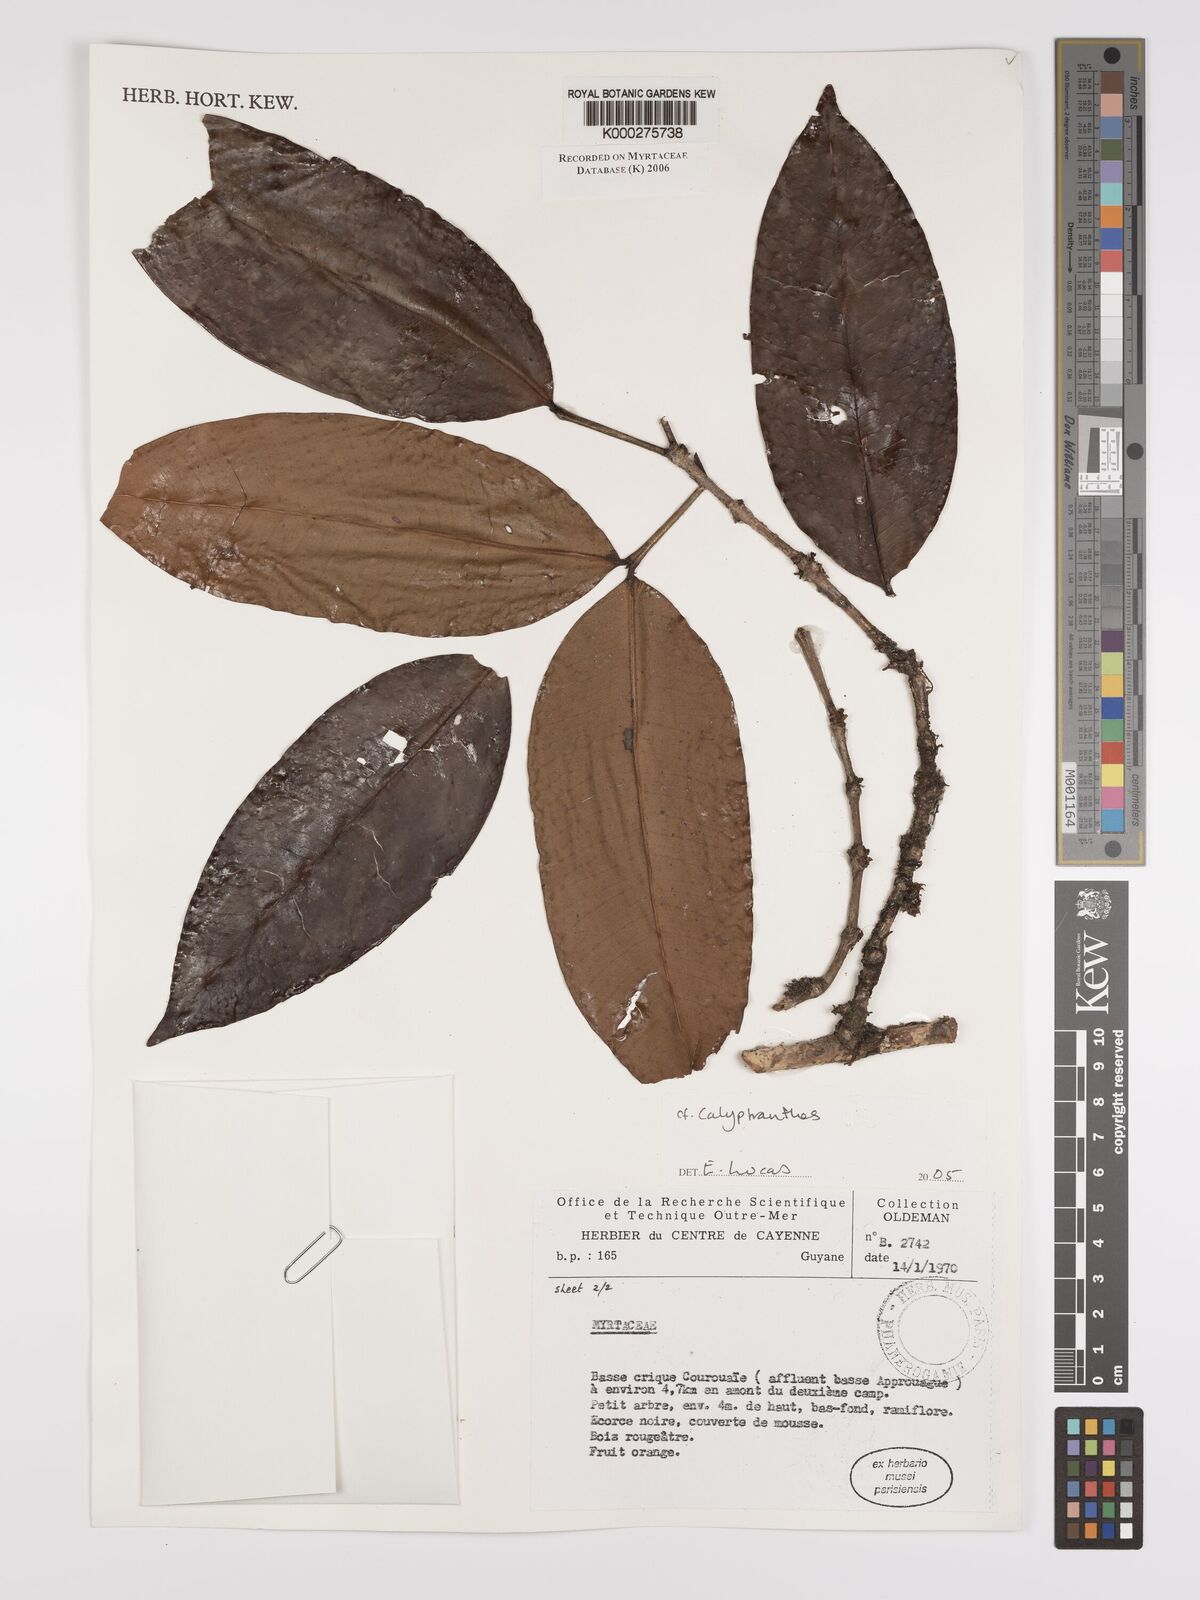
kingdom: Plantae
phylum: Tracheophyta
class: Magnoliopsida
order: Myrtales
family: Myrtaceae
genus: Calyptranthes
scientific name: Calyptranthes
